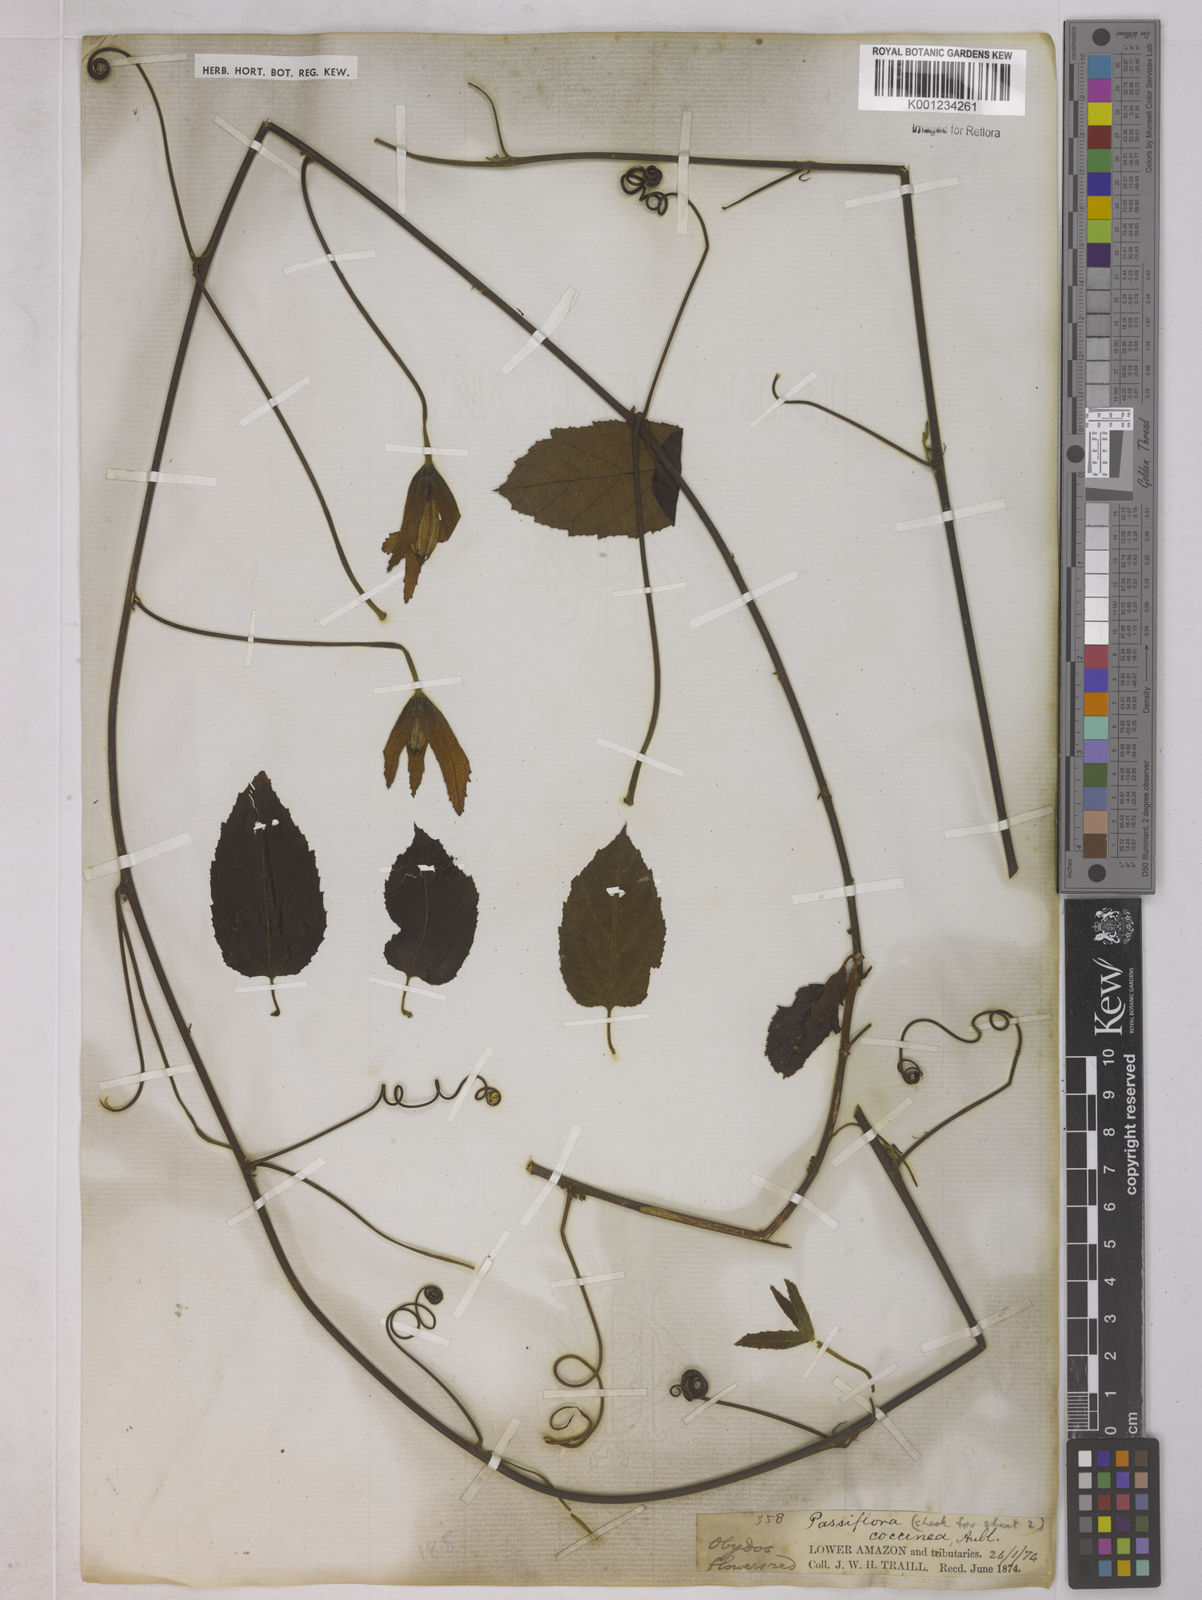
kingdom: Plantae
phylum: Tracheophyta
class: Magnoliopsida
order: Malpighiales
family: Passifloraceae
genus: Passiflora
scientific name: Passiflora coccinea
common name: Scarlet passionflower
